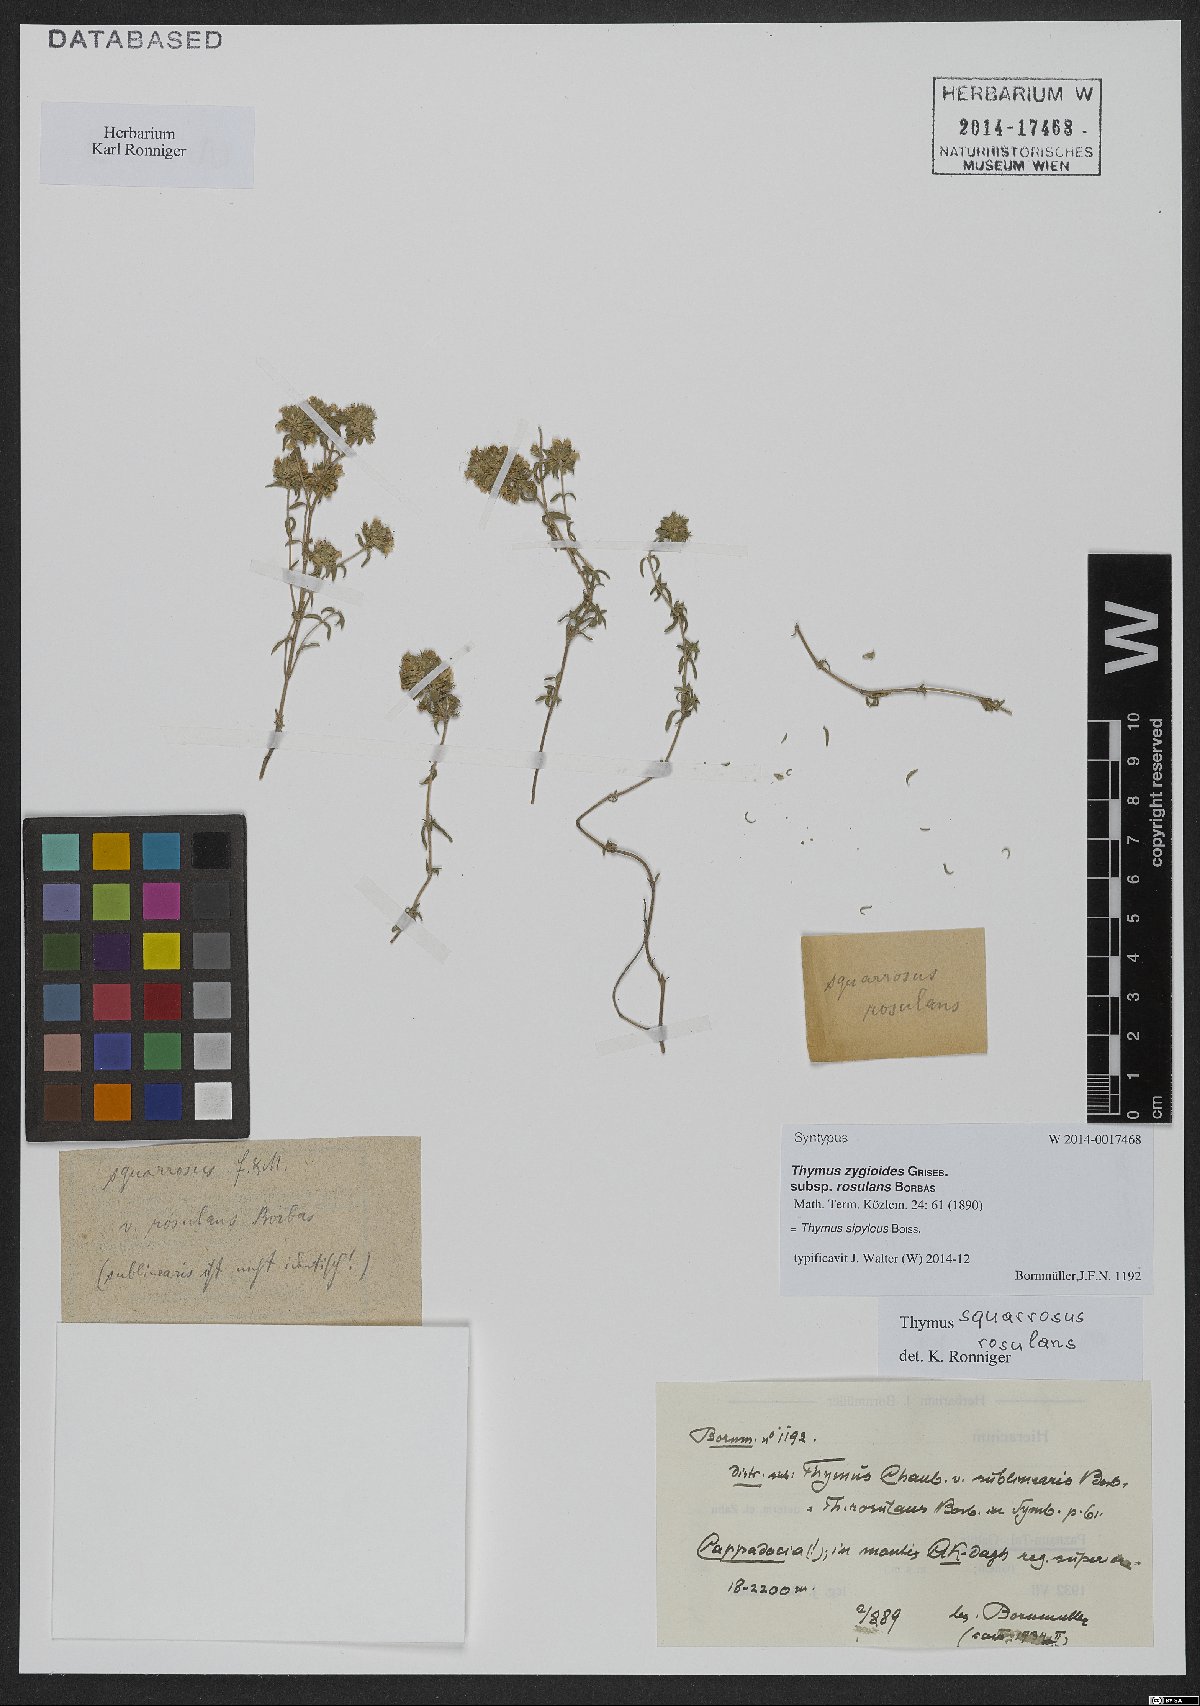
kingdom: Plantae
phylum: Tracheophyta
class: Magnoliopsida
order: Lamiales
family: Lamiaceae
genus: Thymus
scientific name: Thymus sipyleus
